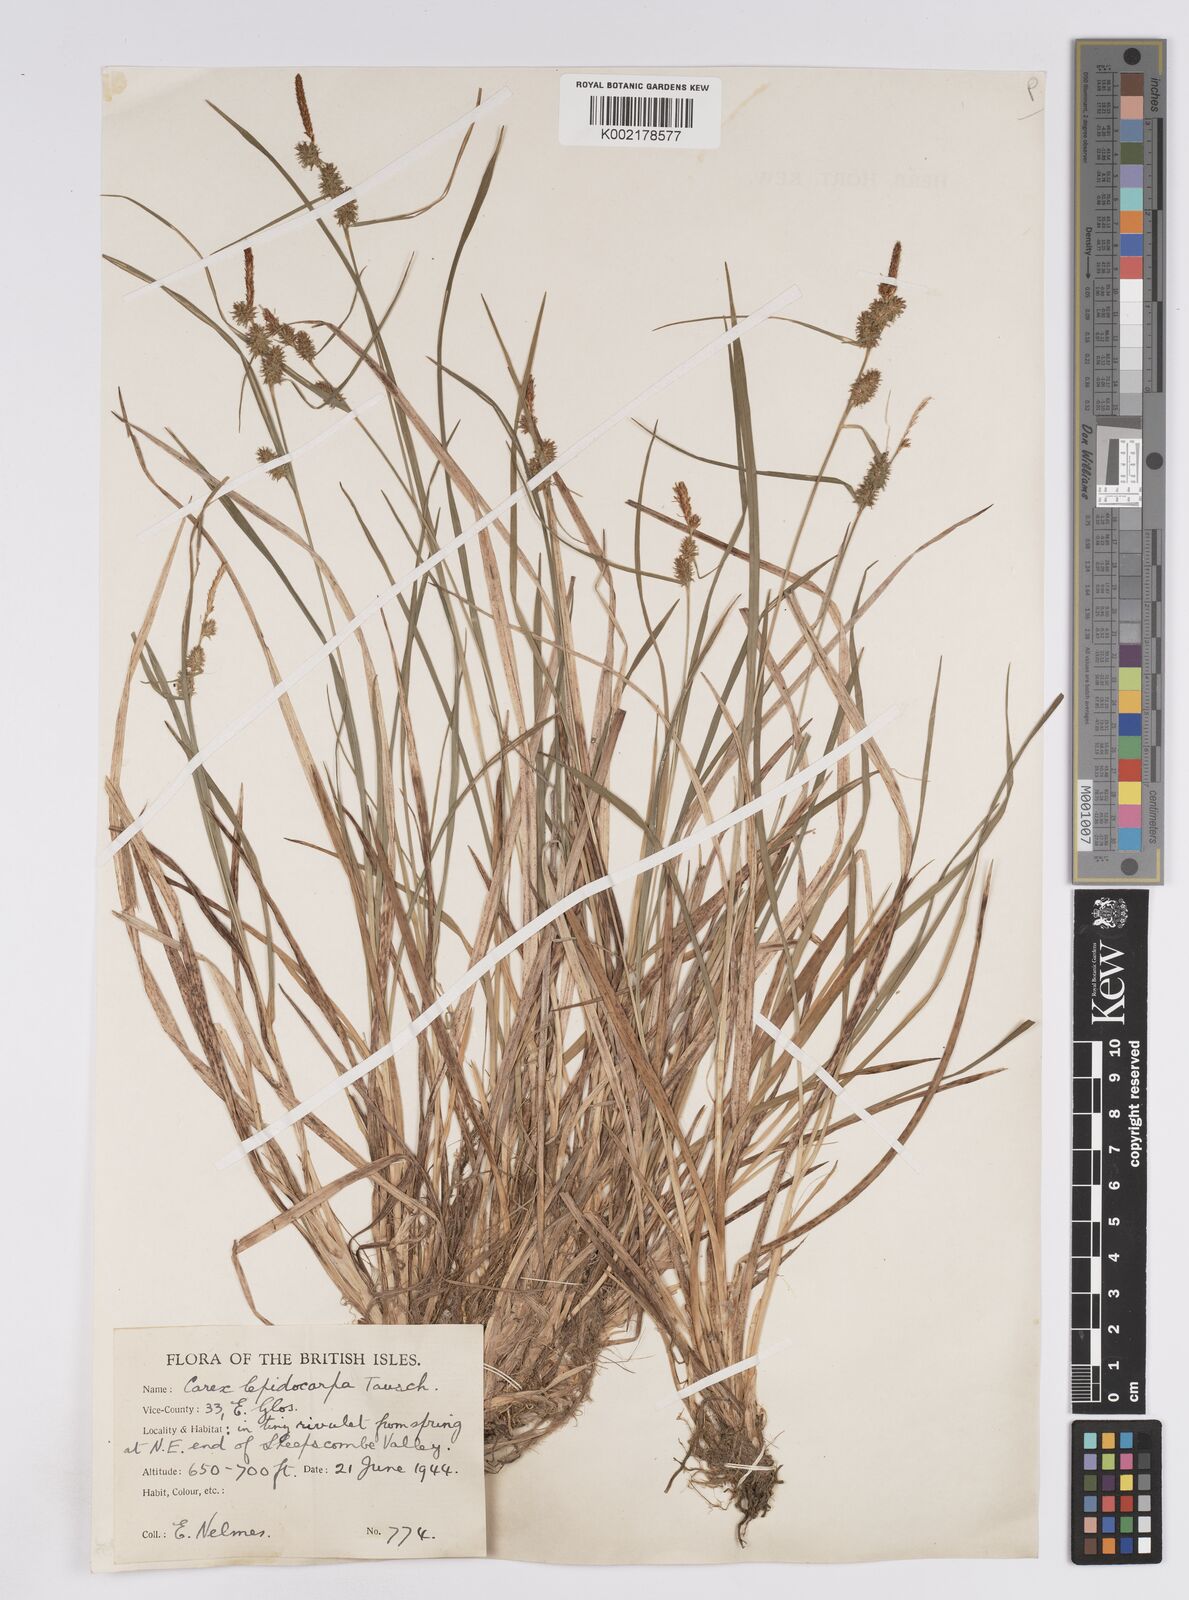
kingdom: Plantae
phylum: Tracheophyta
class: Liliopsida
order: Poales
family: Cyperaceae
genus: Carex
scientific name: Carex lepidocarpa
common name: Long-stalked yellow-sedge
